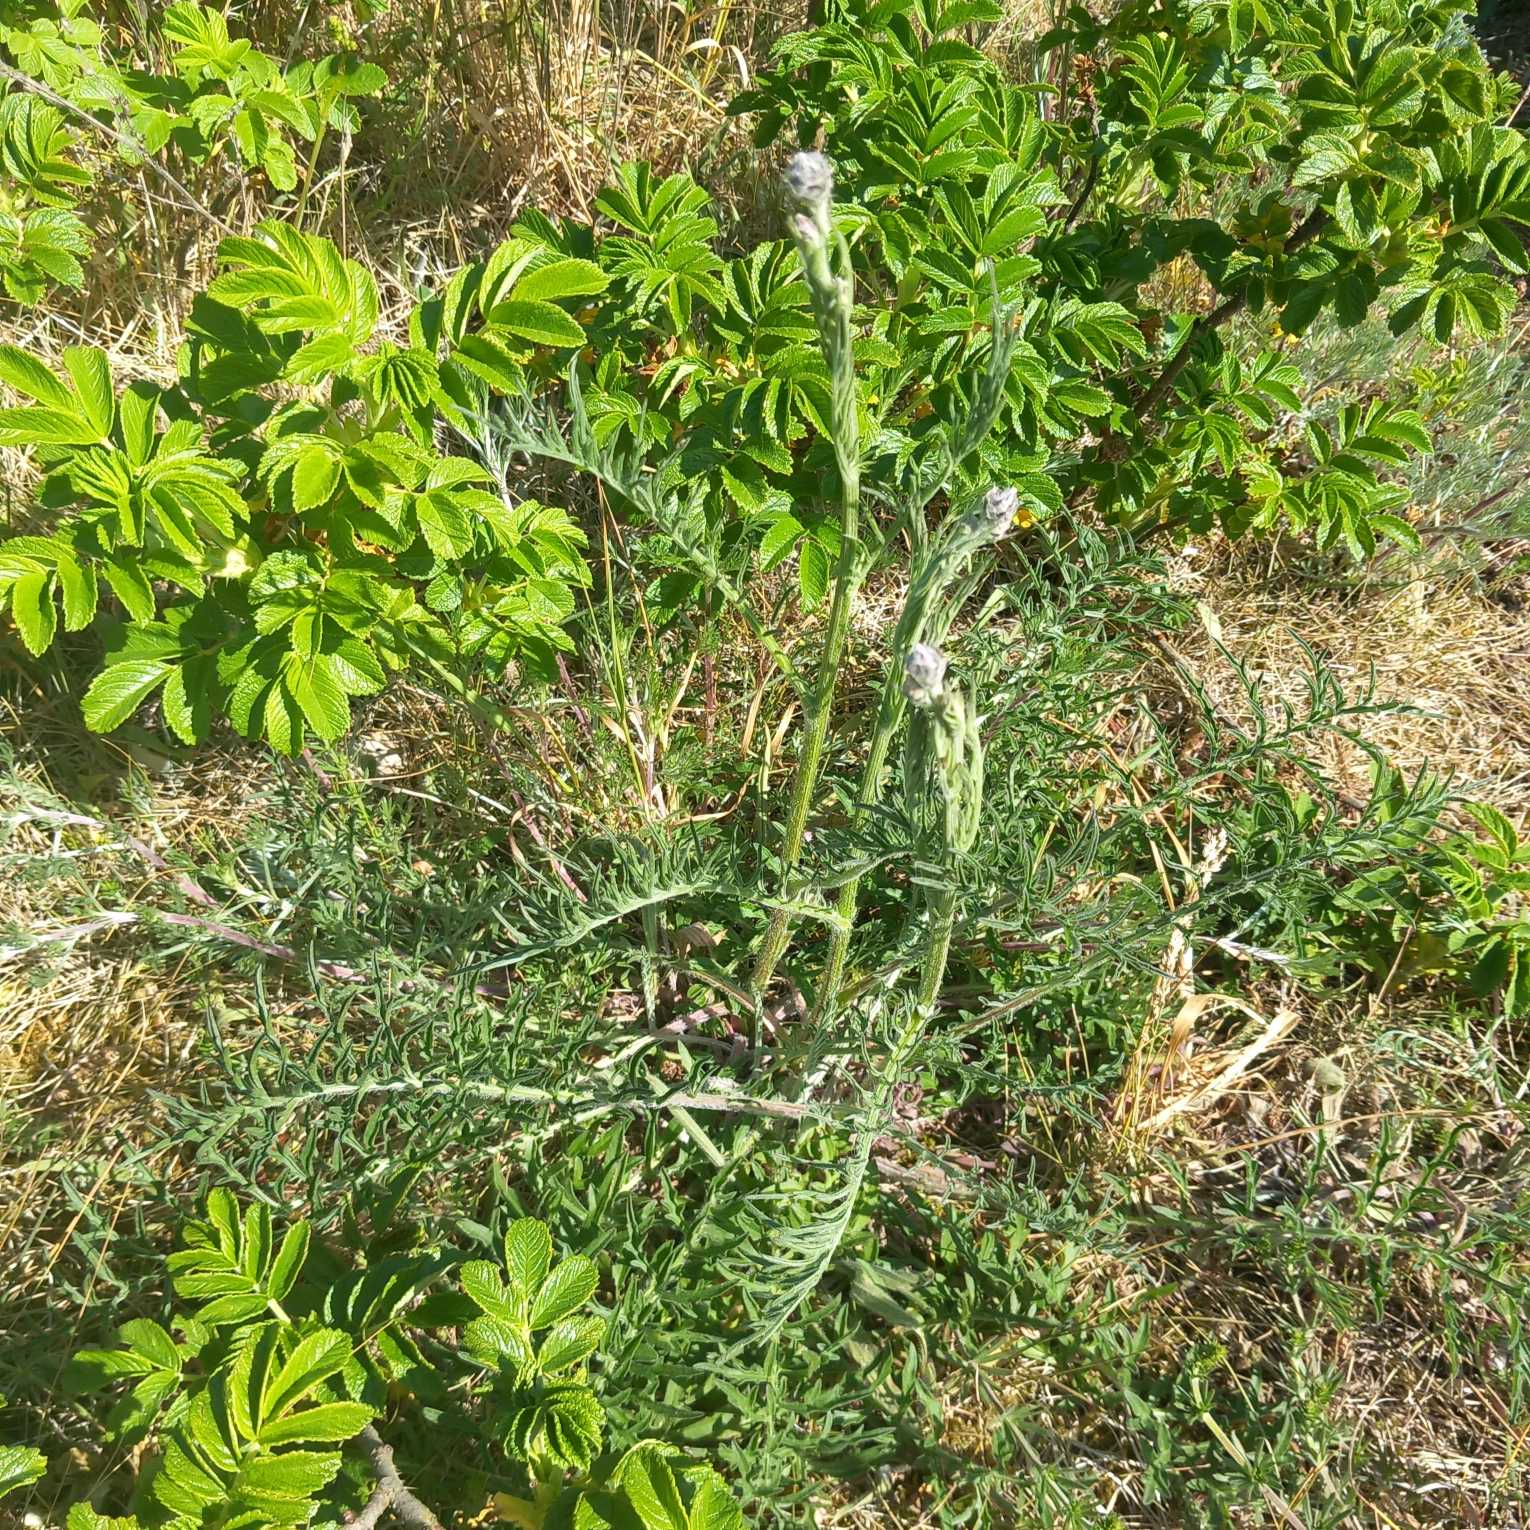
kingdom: Plantae
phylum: Tracheophyta
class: Magnoliopsida
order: Asterales
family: Asteraceae
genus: Centaurea
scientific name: Centaurea scabiosa
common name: Stor knopurt
